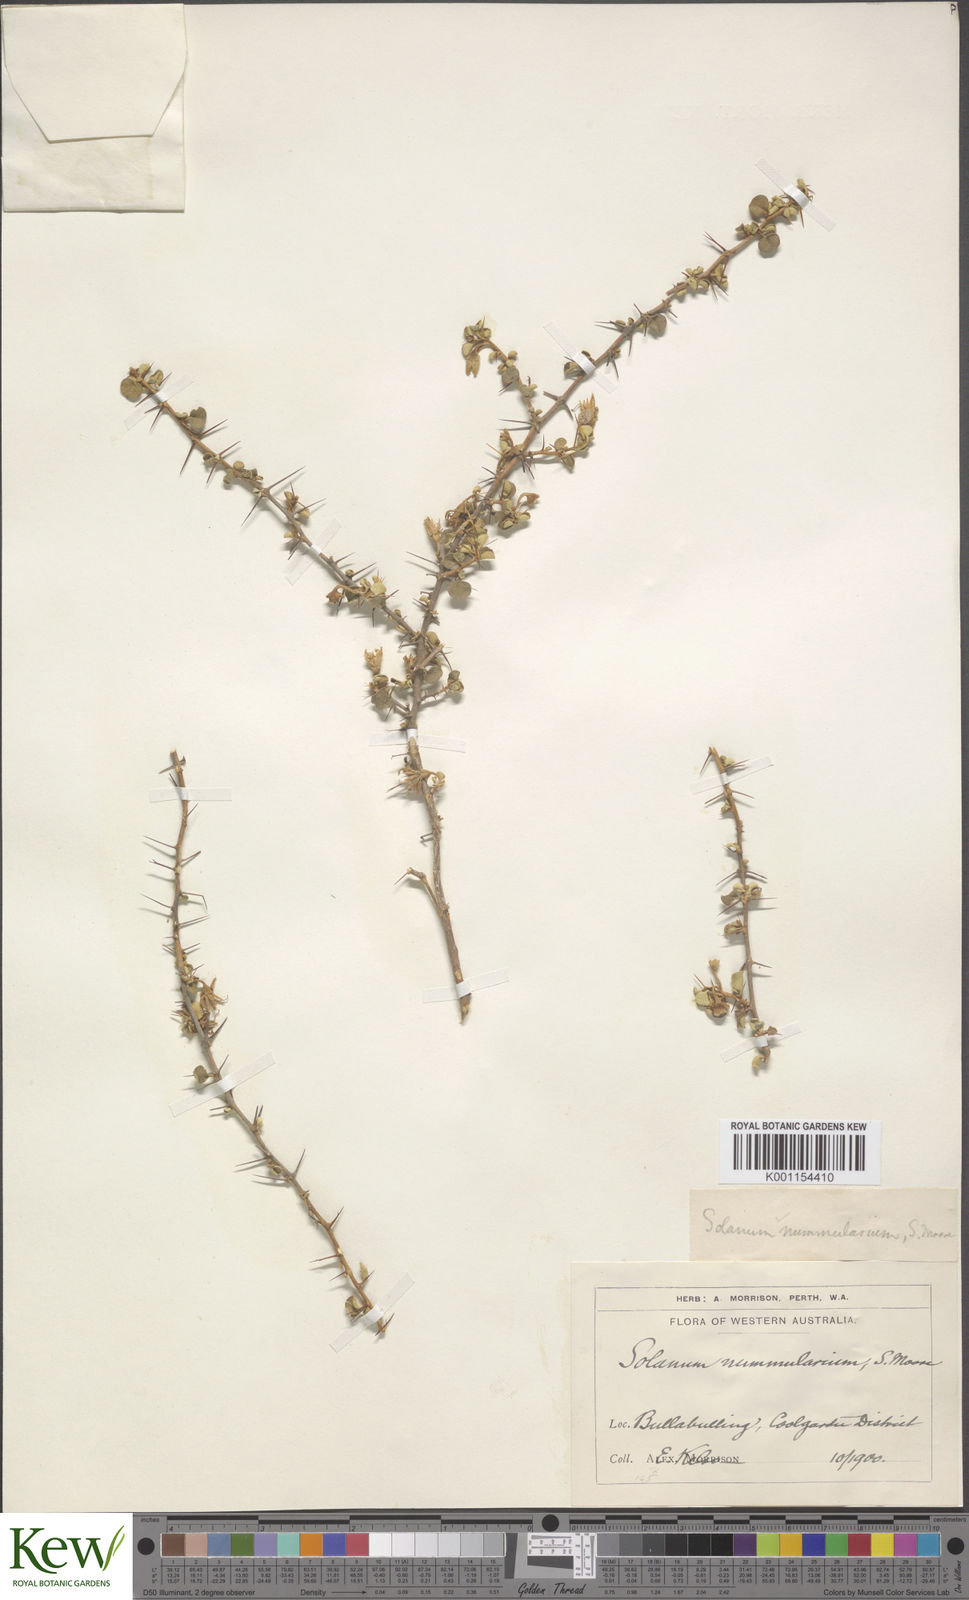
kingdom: Plantae
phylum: Tracheophyta
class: Magnoliopsida
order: Solanales
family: Solanaceae
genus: Solanum
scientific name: Solanum nummularium
